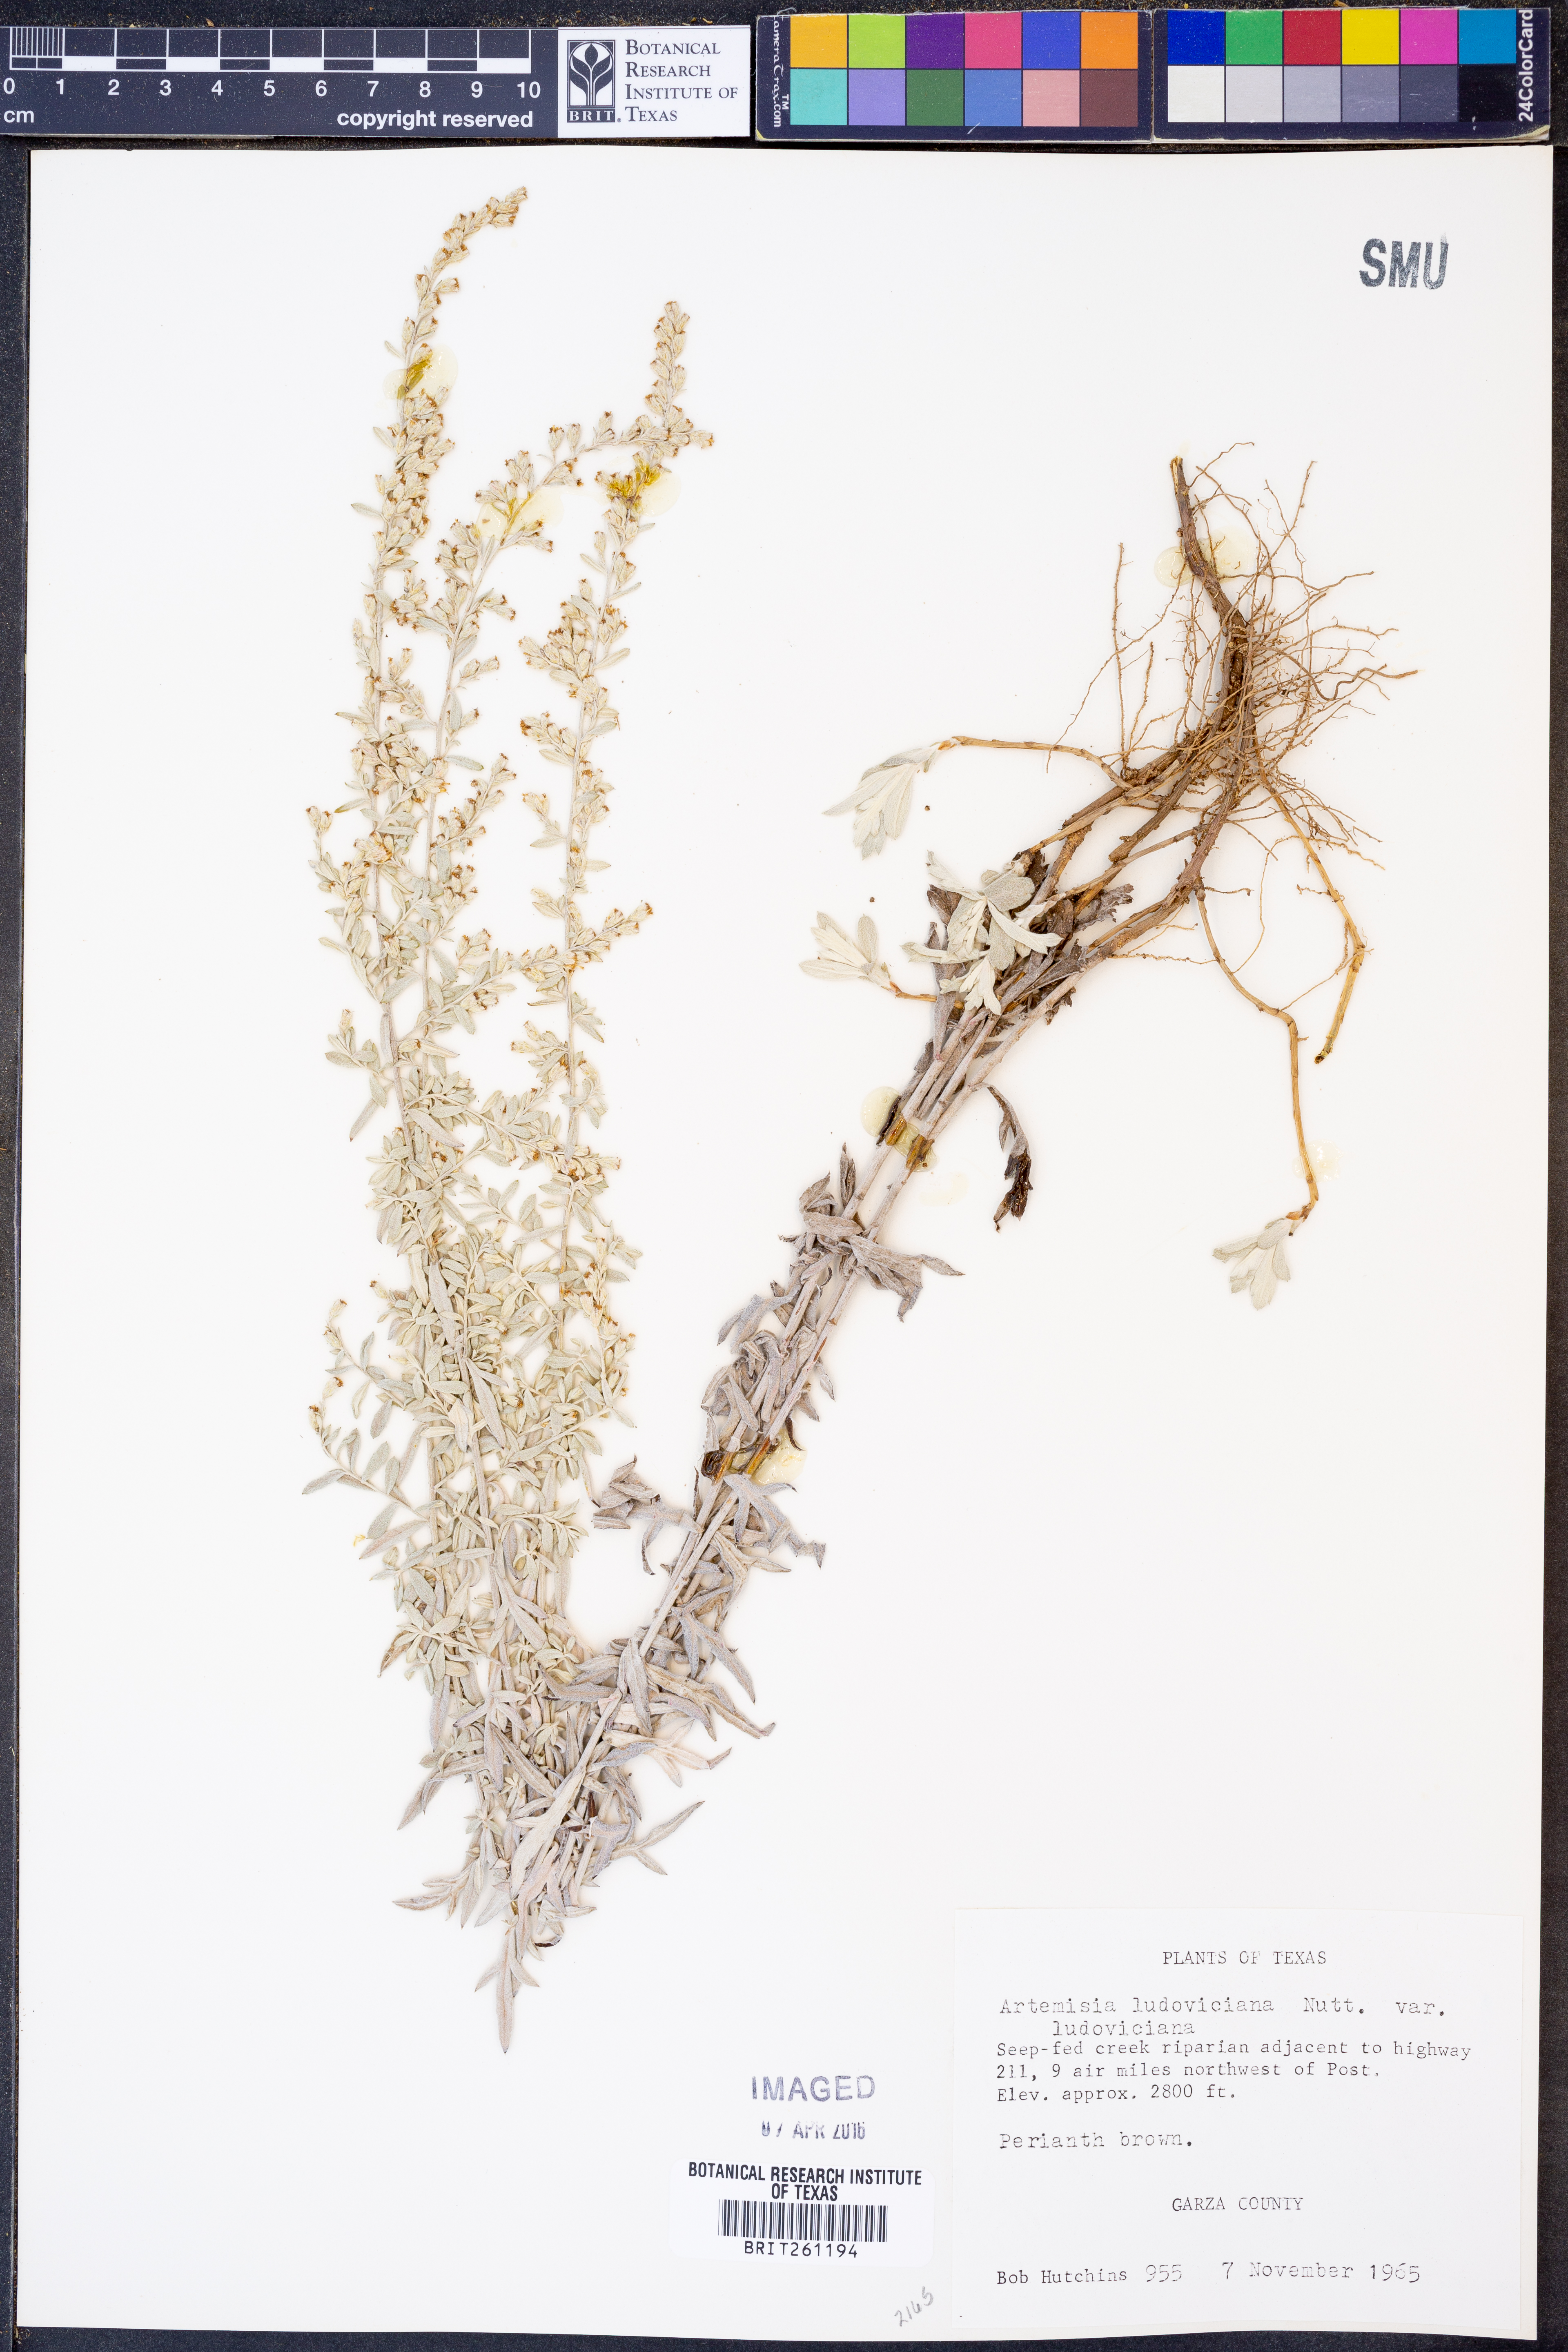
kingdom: Plantae
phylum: Tracheophyta
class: Magnoliopsida
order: Asterales
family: Asteraceae
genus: Artemisia
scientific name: Artemisia ludoviciana
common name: Western mugwort
